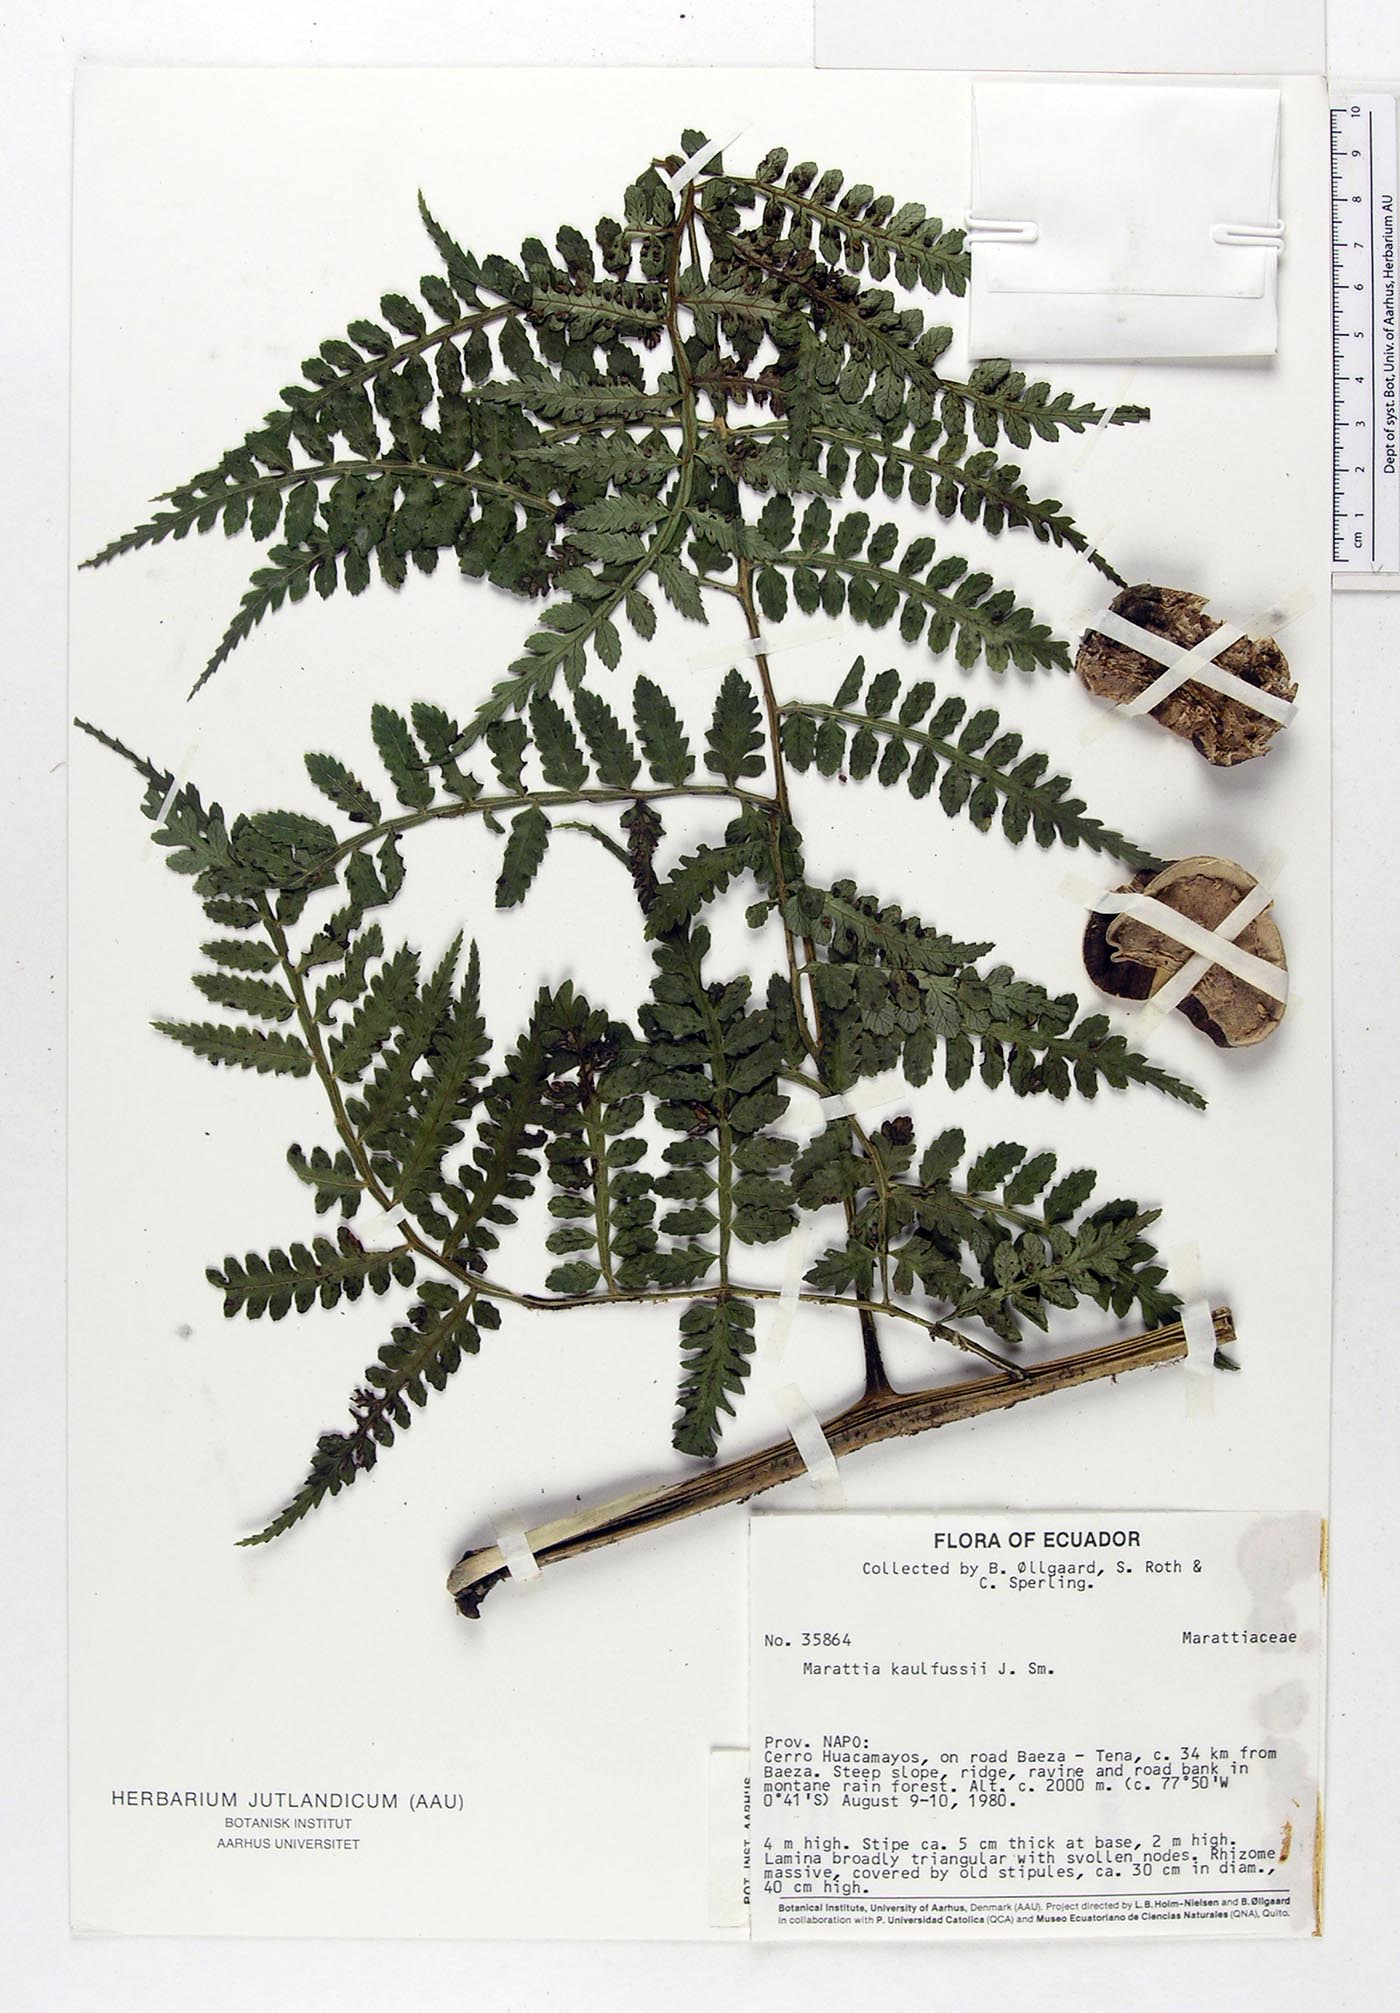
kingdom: Plantae
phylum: Tracheophyta
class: Polypodiopsida
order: Marattiales
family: Marattiaceae
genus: Eupodium
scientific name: Eupodium kaulfussii
